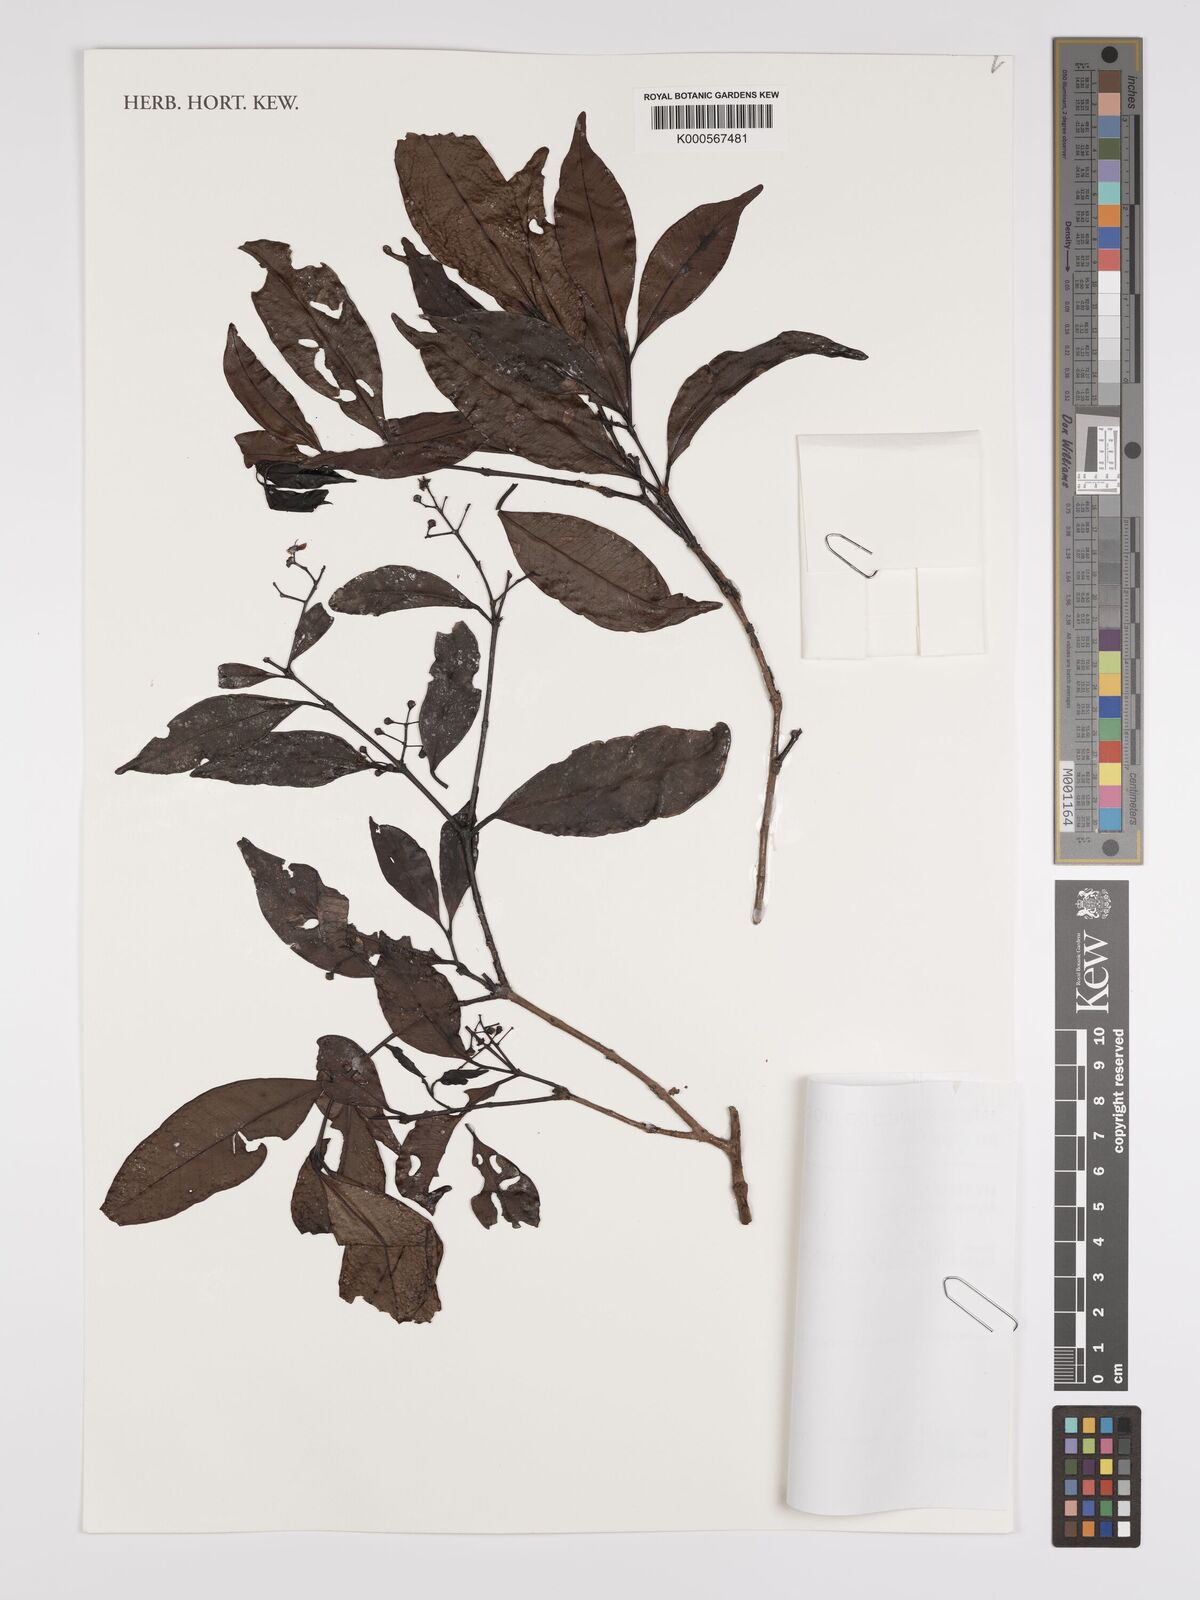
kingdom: Plantae
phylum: Tracheophyta
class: Magnoliopsida
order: Myrtales
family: Myrtaceae
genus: Myrcia
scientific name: Myrcia laxiflora
